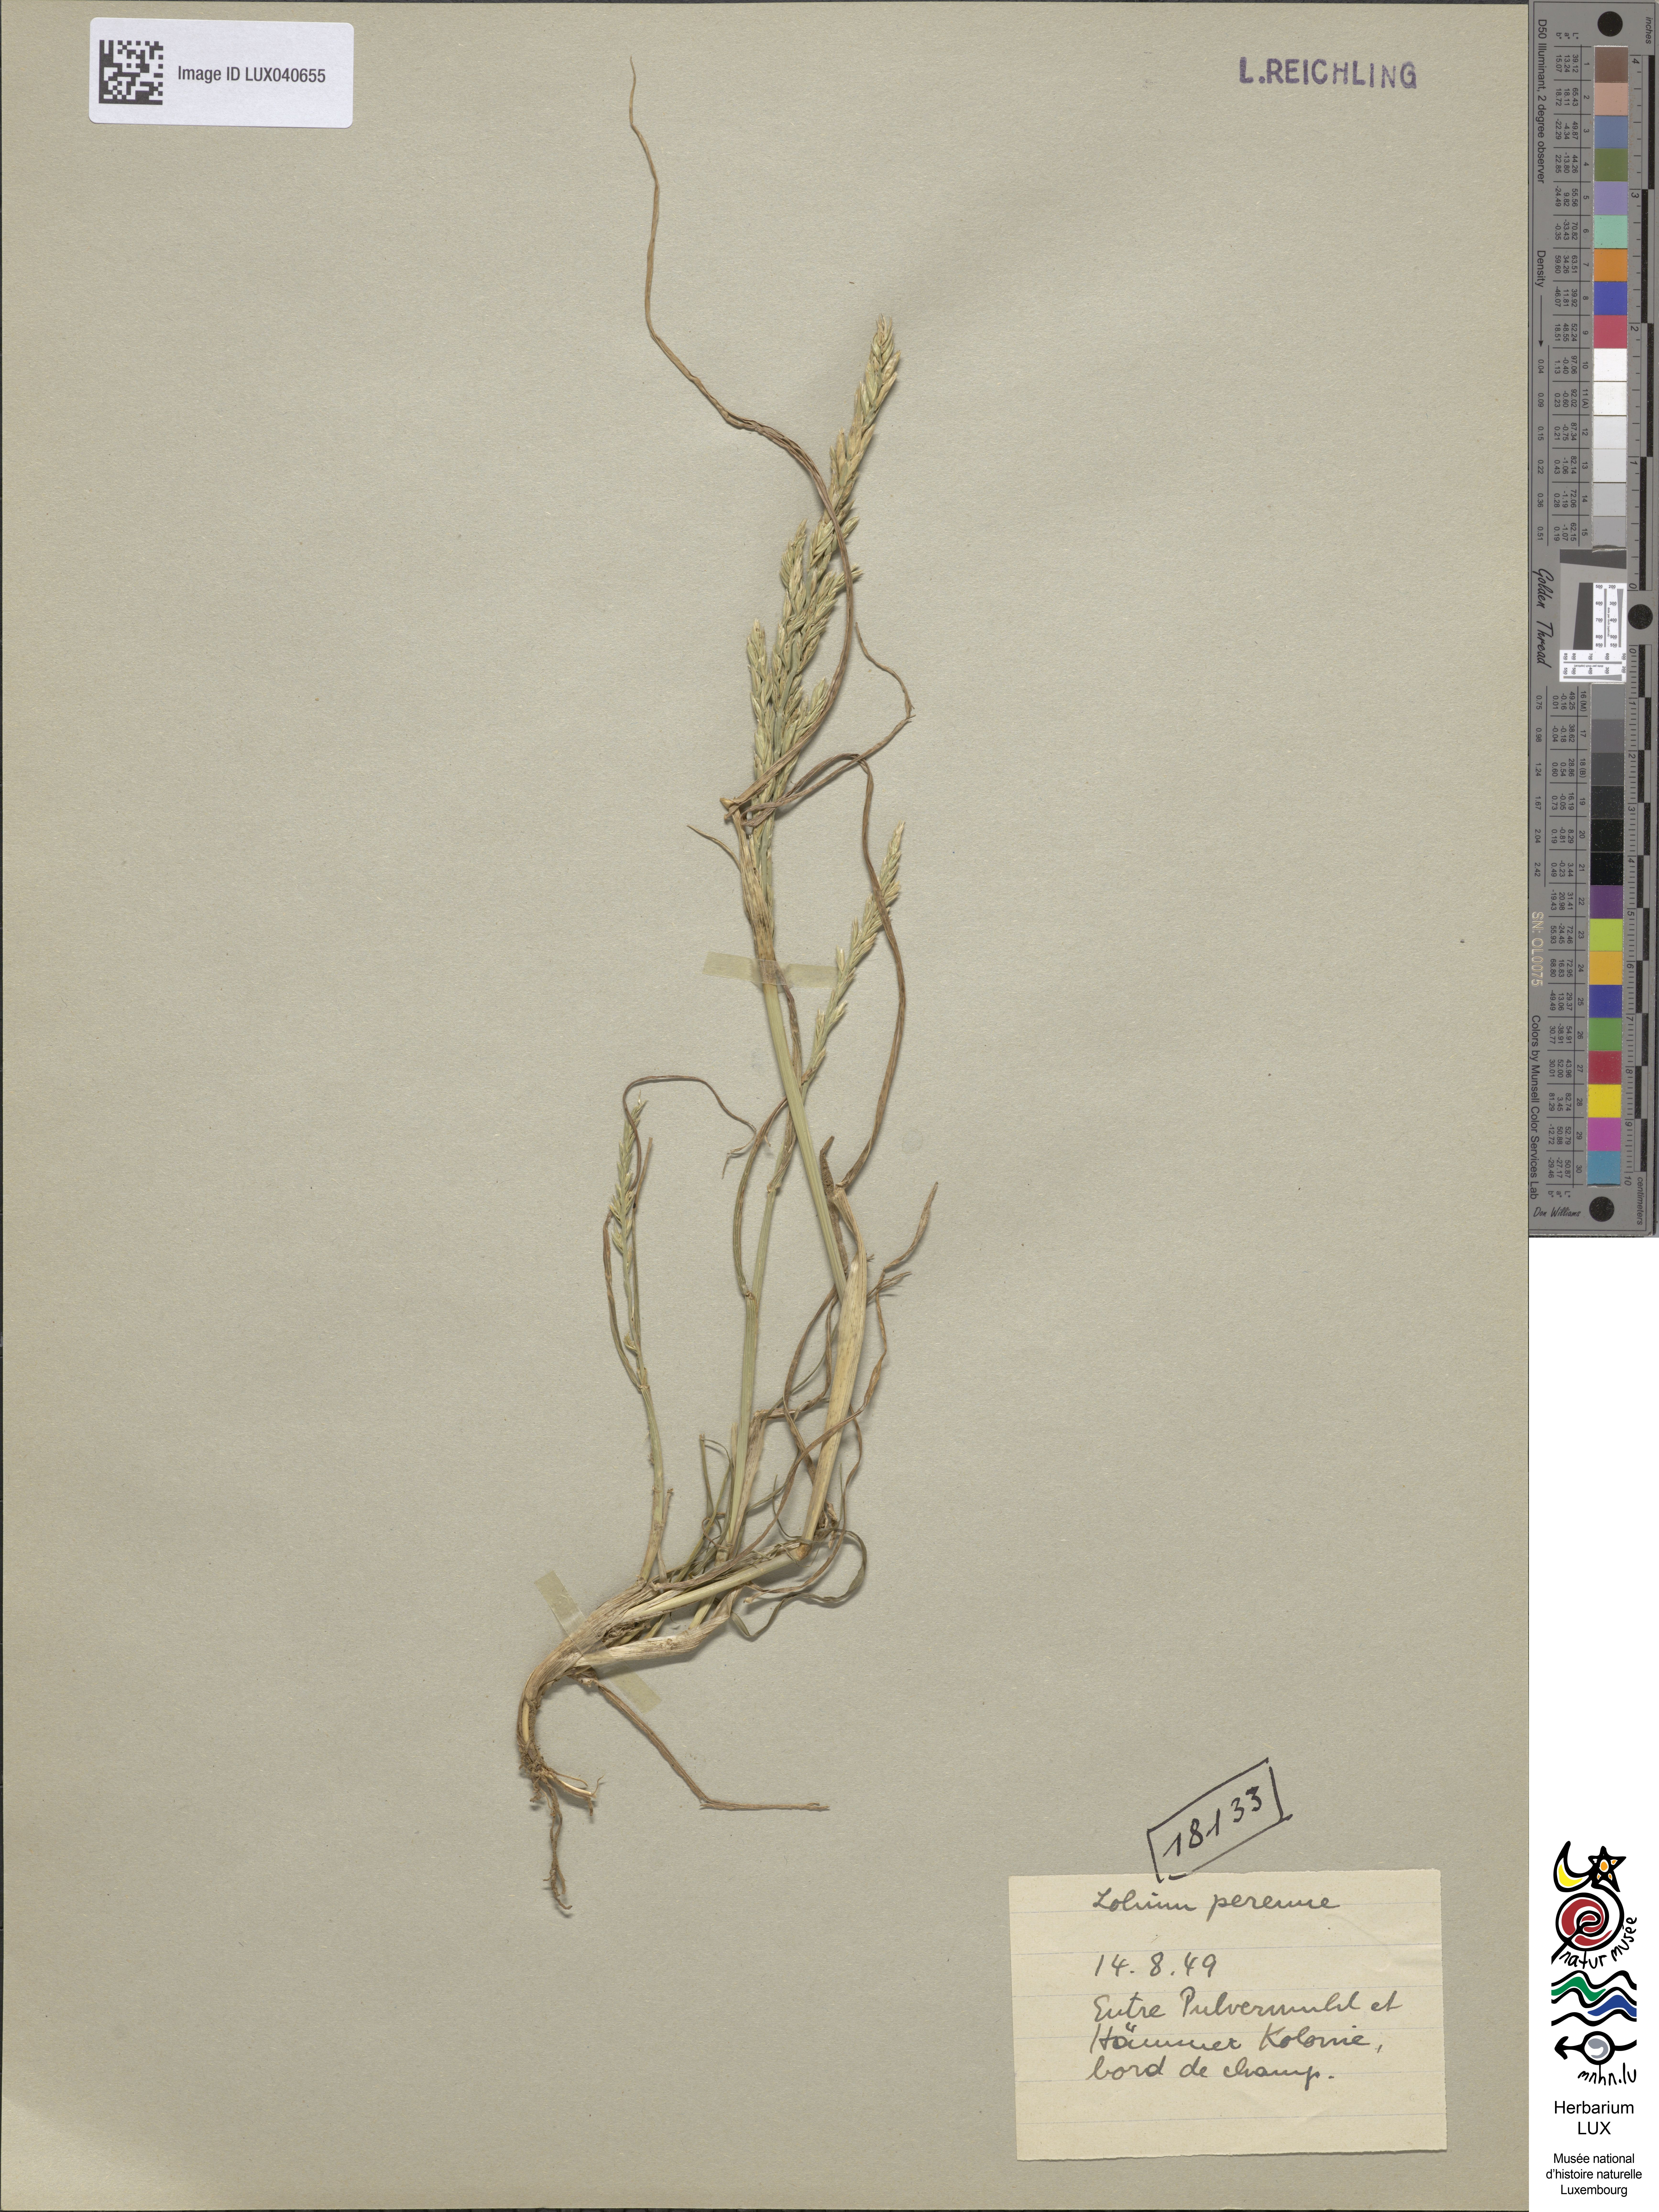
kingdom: Plantae
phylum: Tracheophyta
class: Liliopsida
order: Poales
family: Poaceae
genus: Lolium
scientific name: Lolium perenne
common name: Perennial ryegrass
